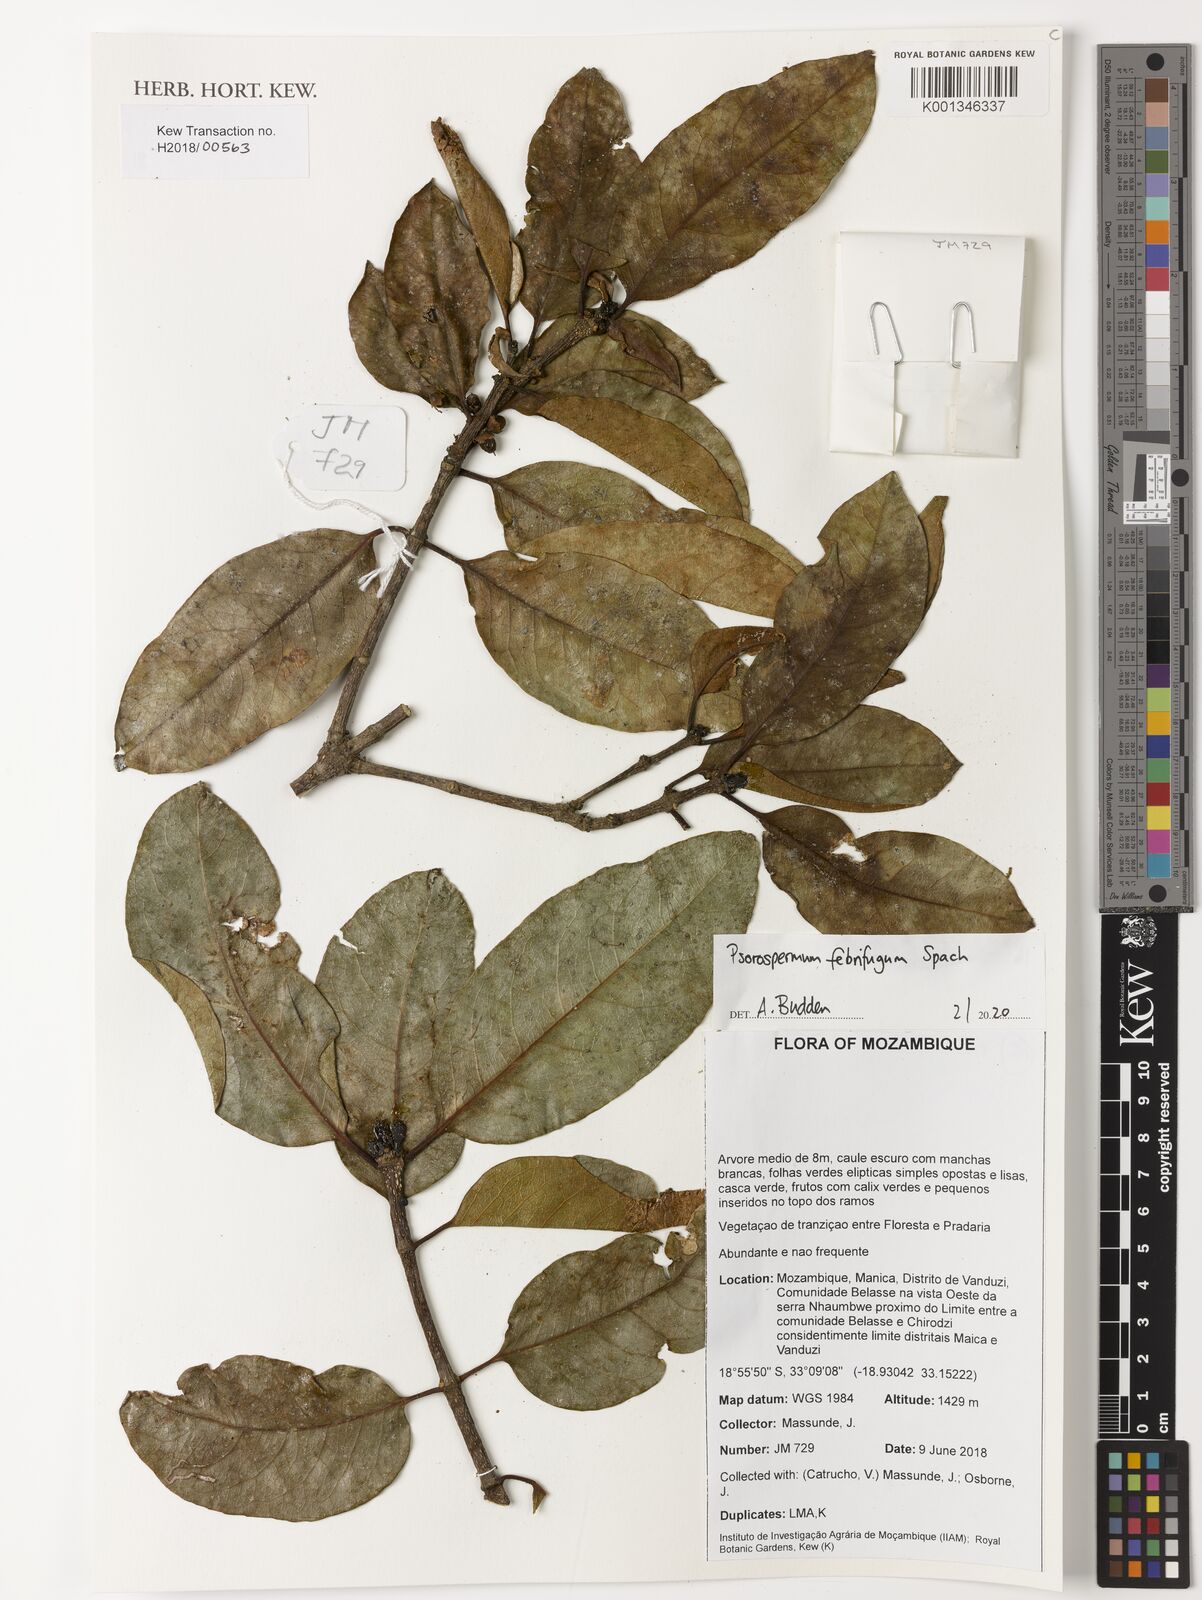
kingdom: Plantae
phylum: Tracheophyta
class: Magnoliopsida
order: Malpighiales
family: Hypericaceae
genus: Psorospermum
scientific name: Psorospermum febrifugum
